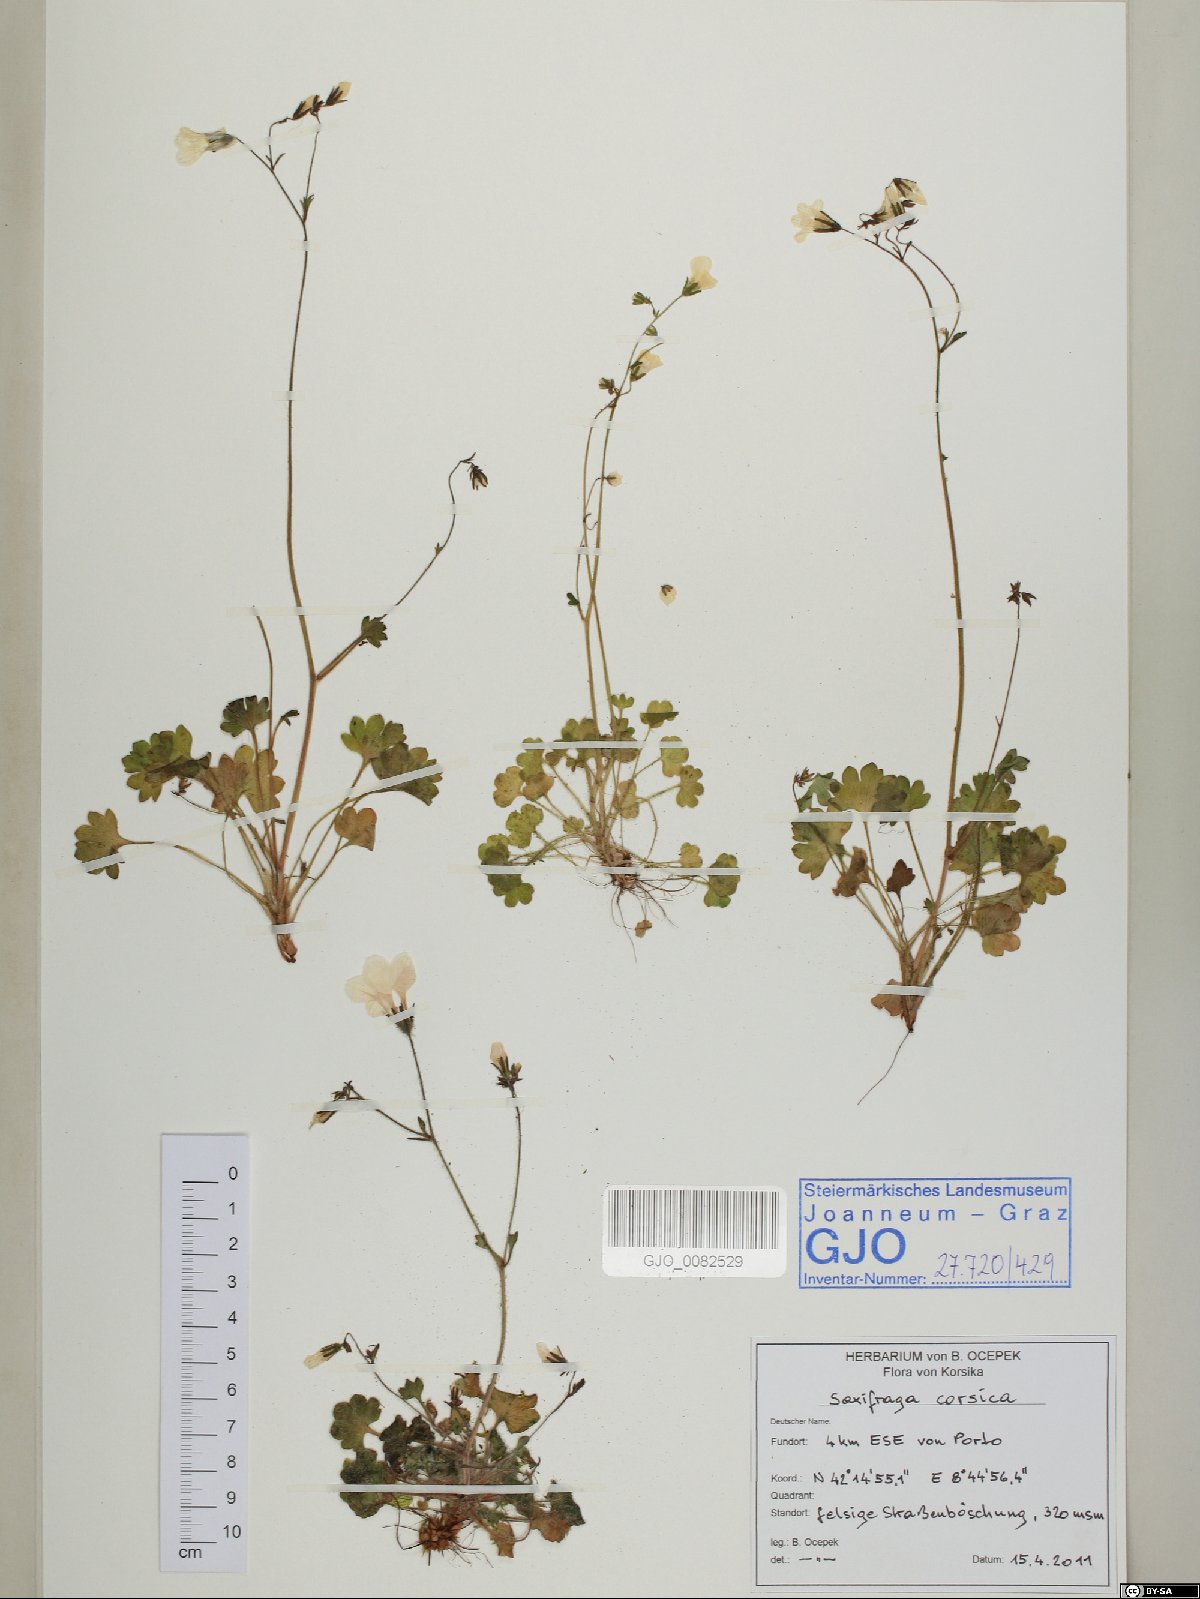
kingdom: Plantae
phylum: Tracheophyta
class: Magnoliopsida
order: Saxifragales
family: Saxifragaceae
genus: Saxifraga
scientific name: Saxifraga corsica
